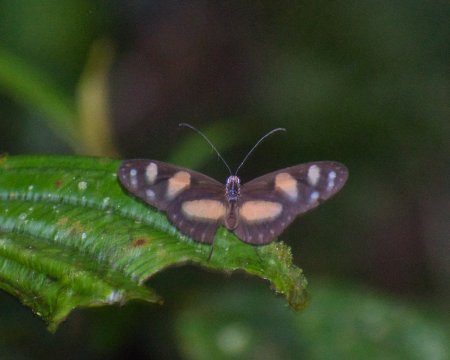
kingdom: Animalia
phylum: Arthropoda
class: Insecta
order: Lepidoptera
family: Nymphalidae
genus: Oleria
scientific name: Oleria zelica
